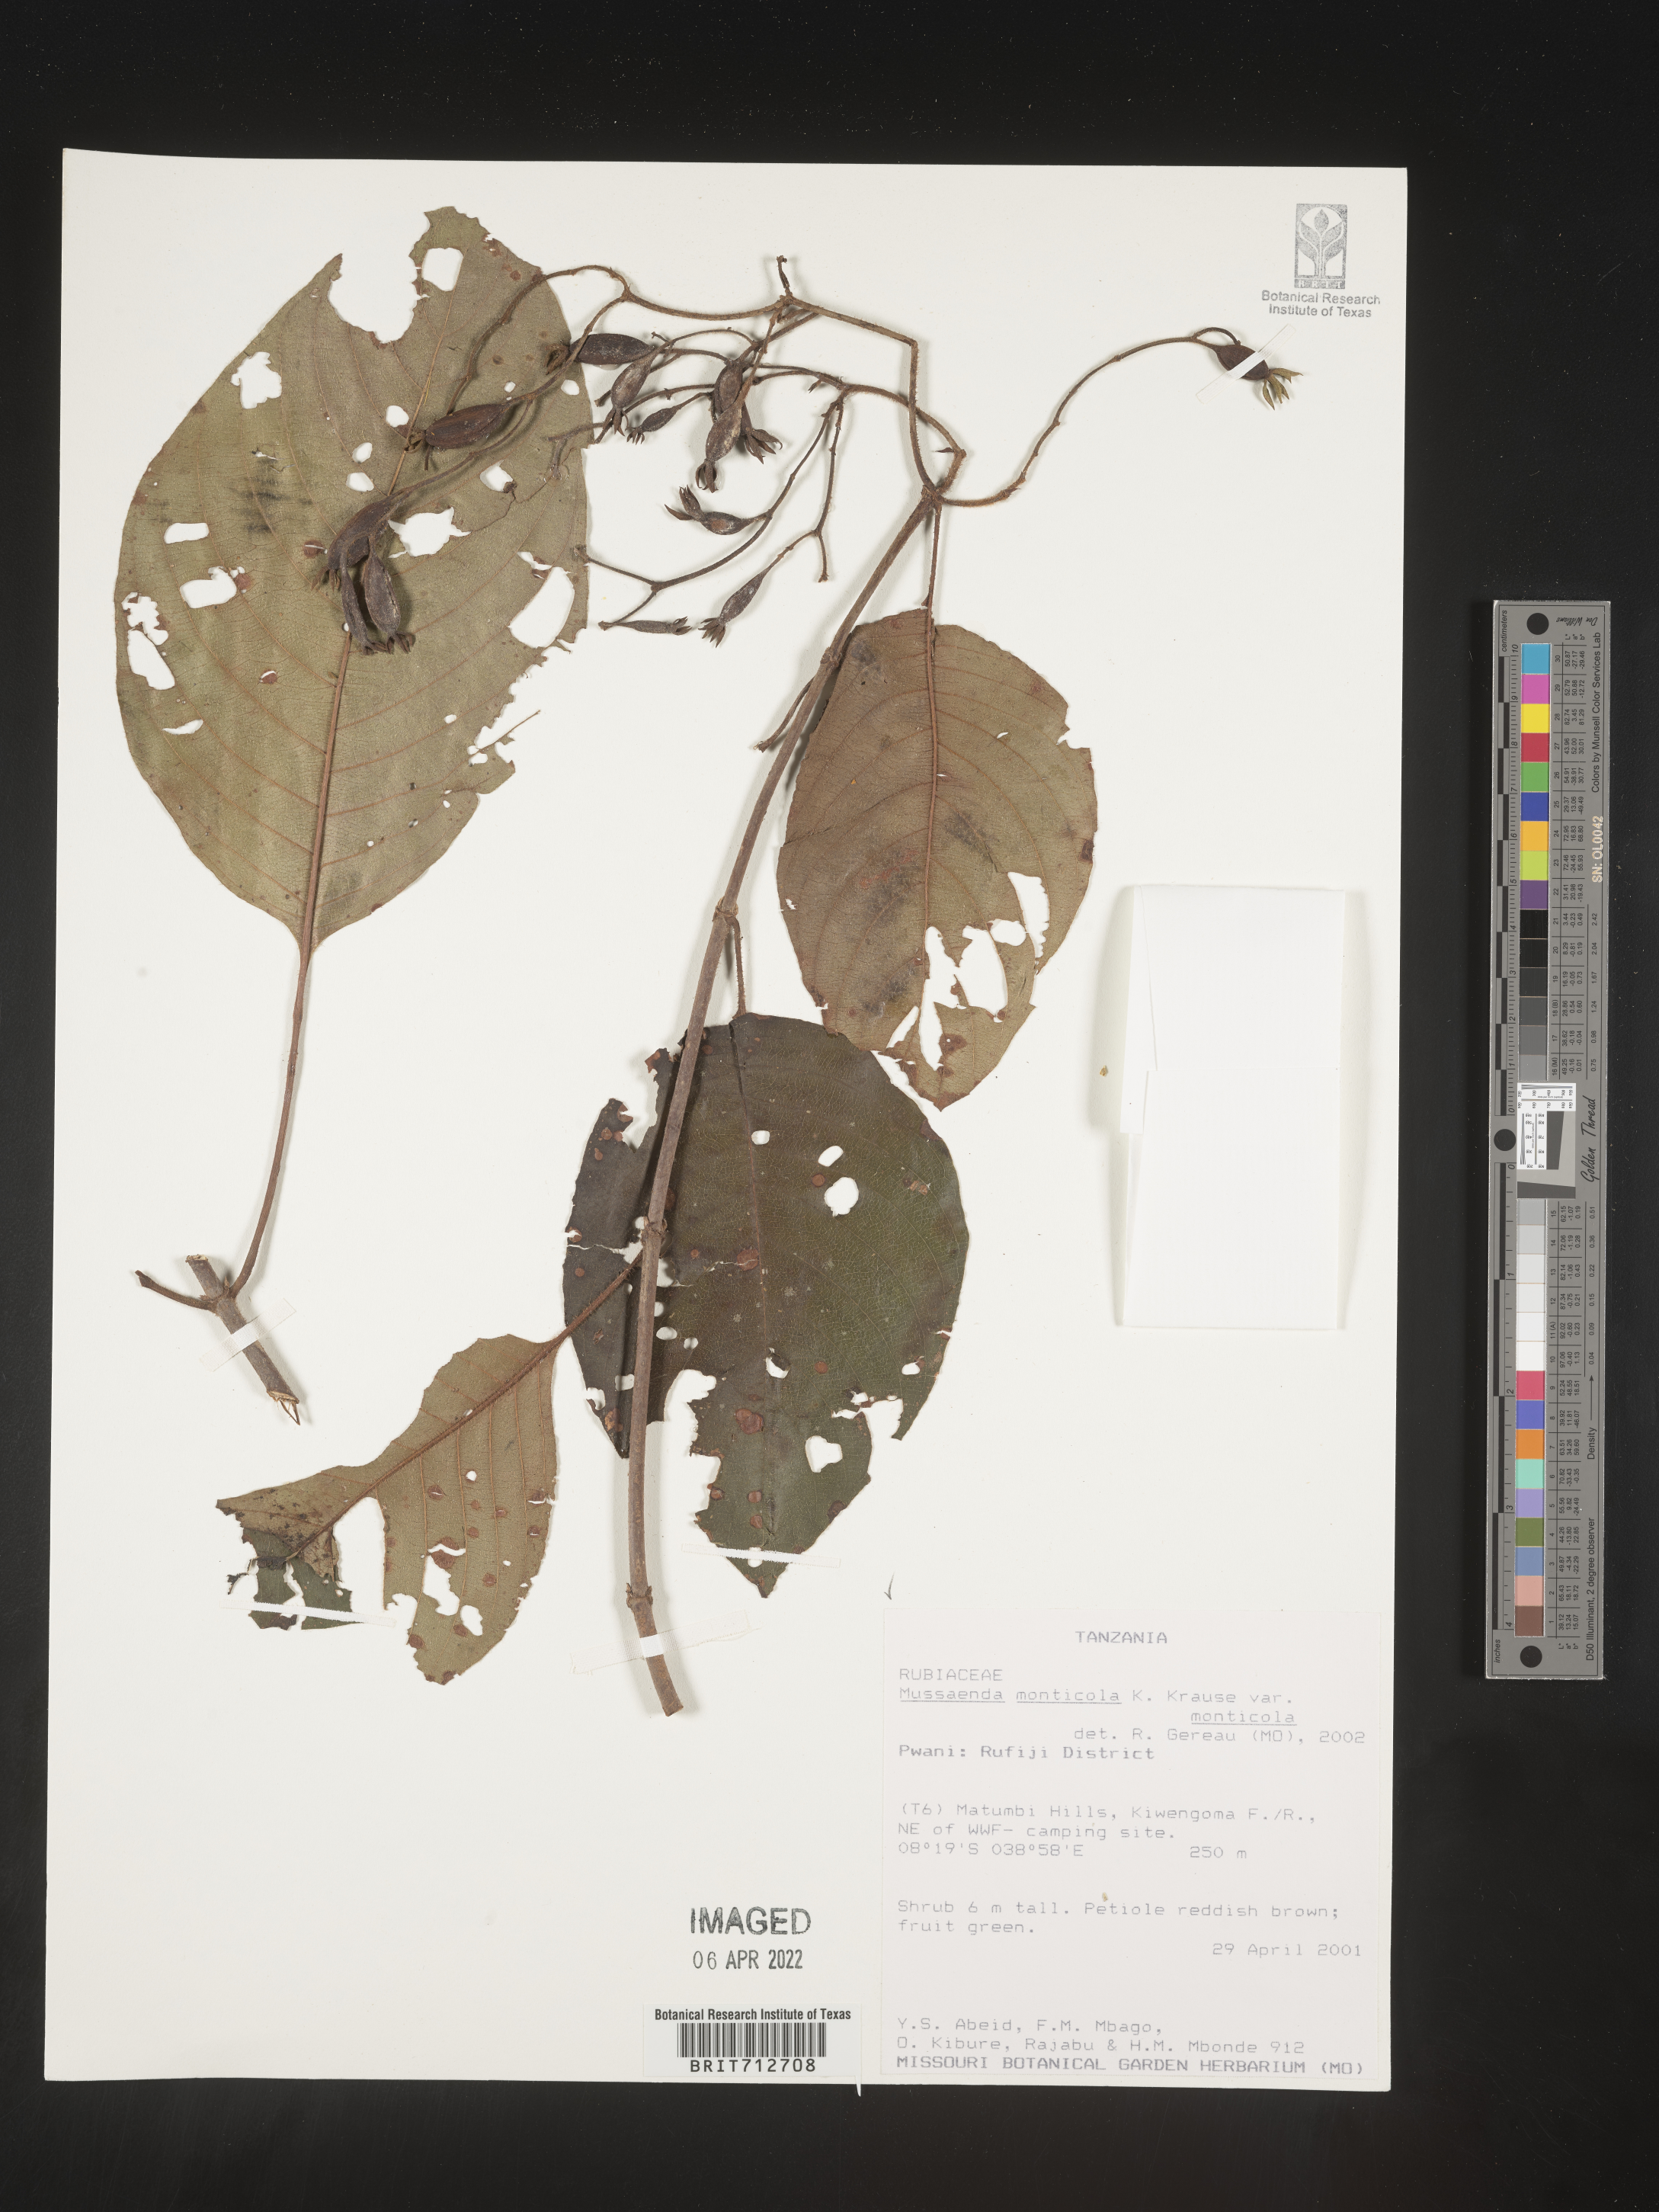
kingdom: Plantae
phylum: Tracheophyta
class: Magnoliopsida
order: Gentianales
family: Rubiaceae
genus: Mussaenda
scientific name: Mussaenda
